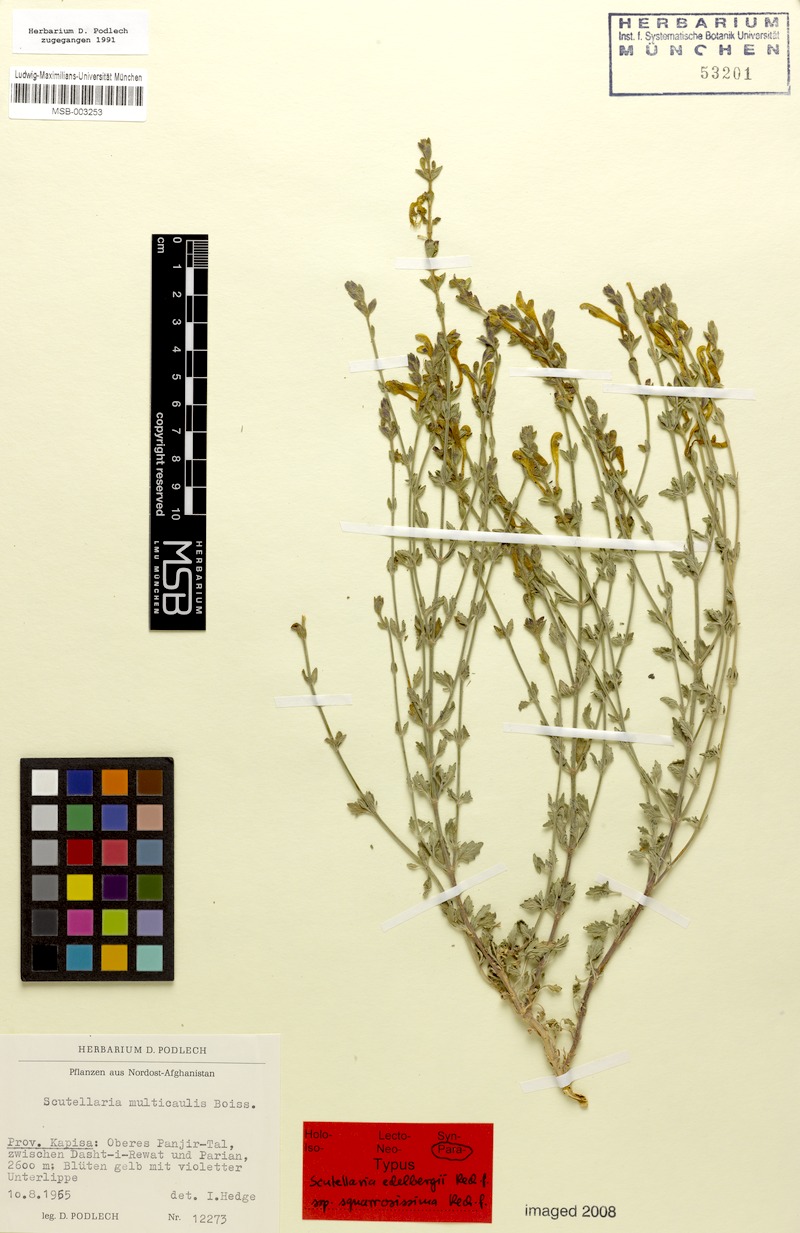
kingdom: Plantae
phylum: Tracheophyta
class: Magnoliopsida
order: Lamiales
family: Lamiaceae
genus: Scutellaria
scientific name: Scutellaria edelbergii
